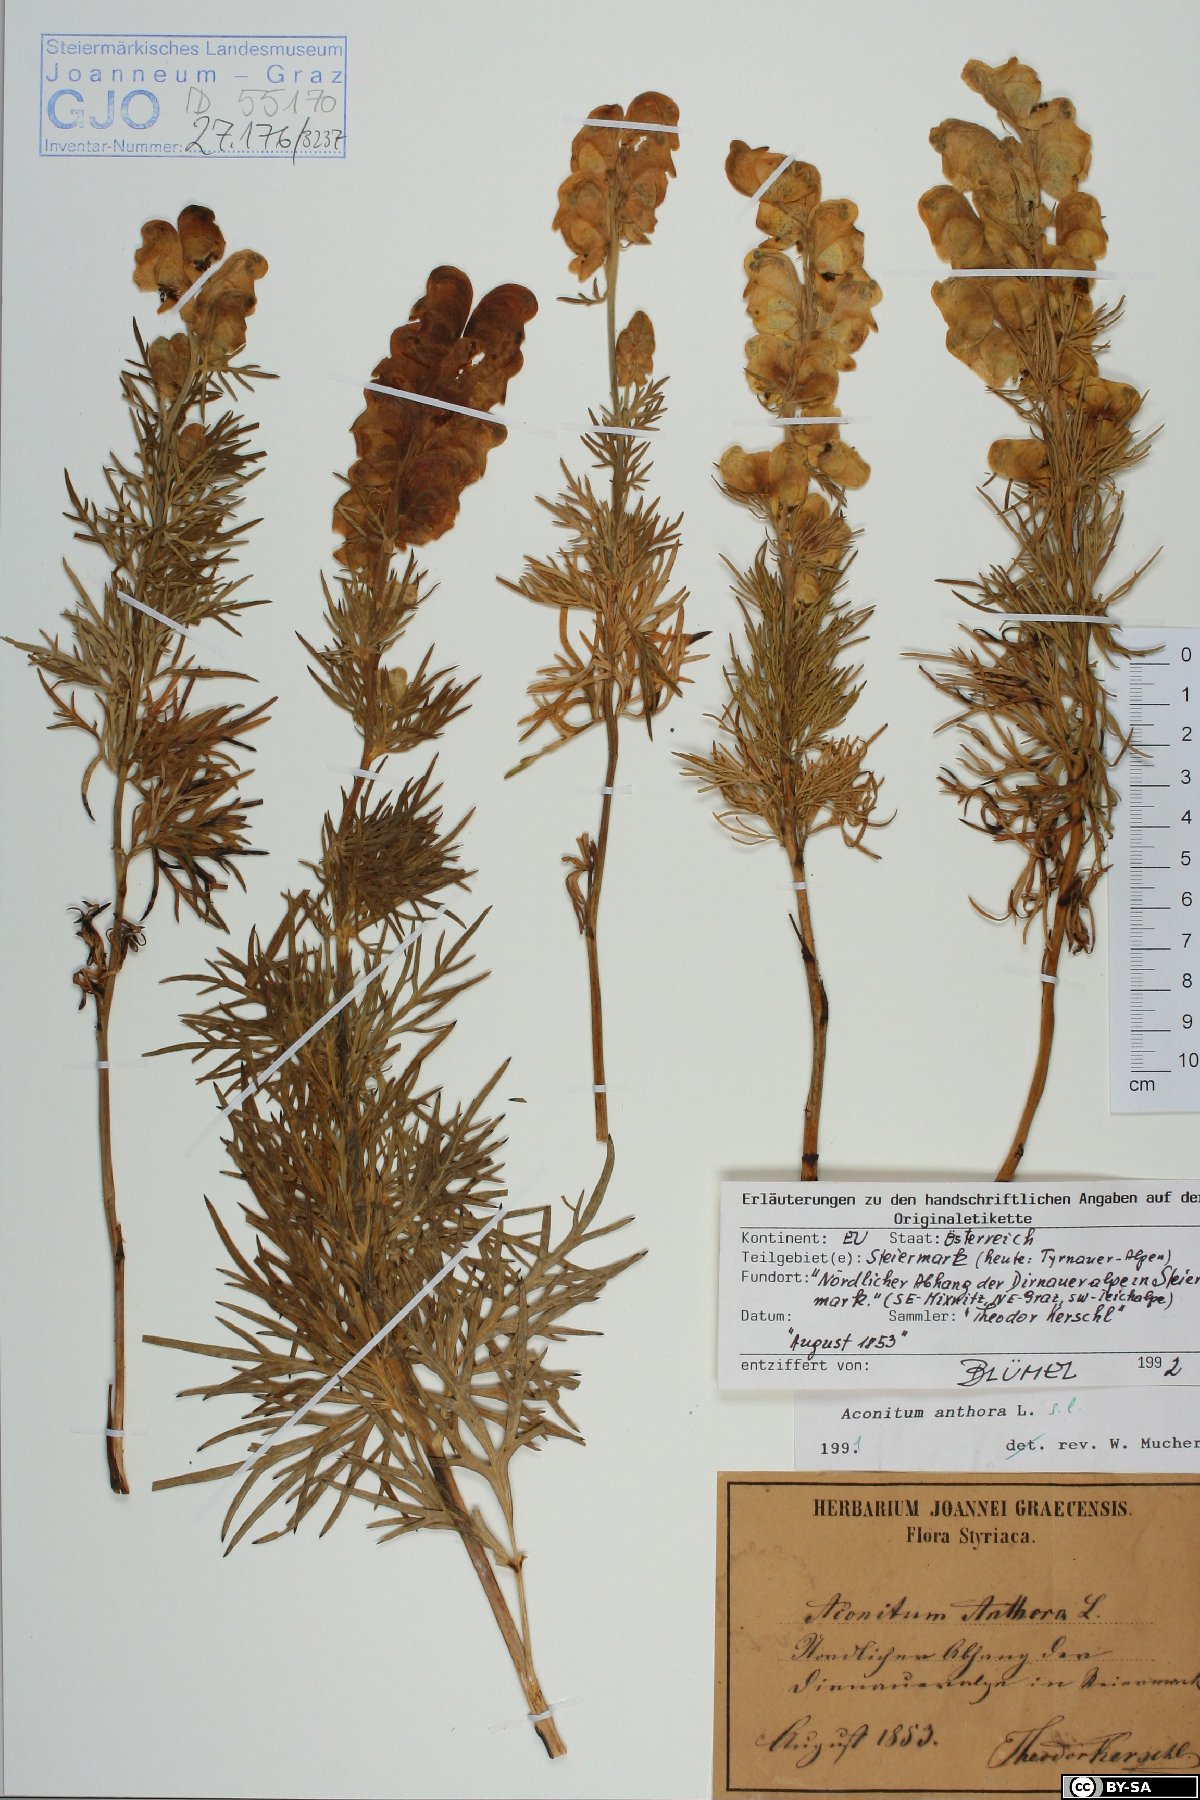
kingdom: Plantae
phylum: Tracheophyta
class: Magnoliopsida
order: Ranunculales
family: Ranunculaceae
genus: Aconitum
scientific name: Aconitum anthora
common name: Yellow monkshood
